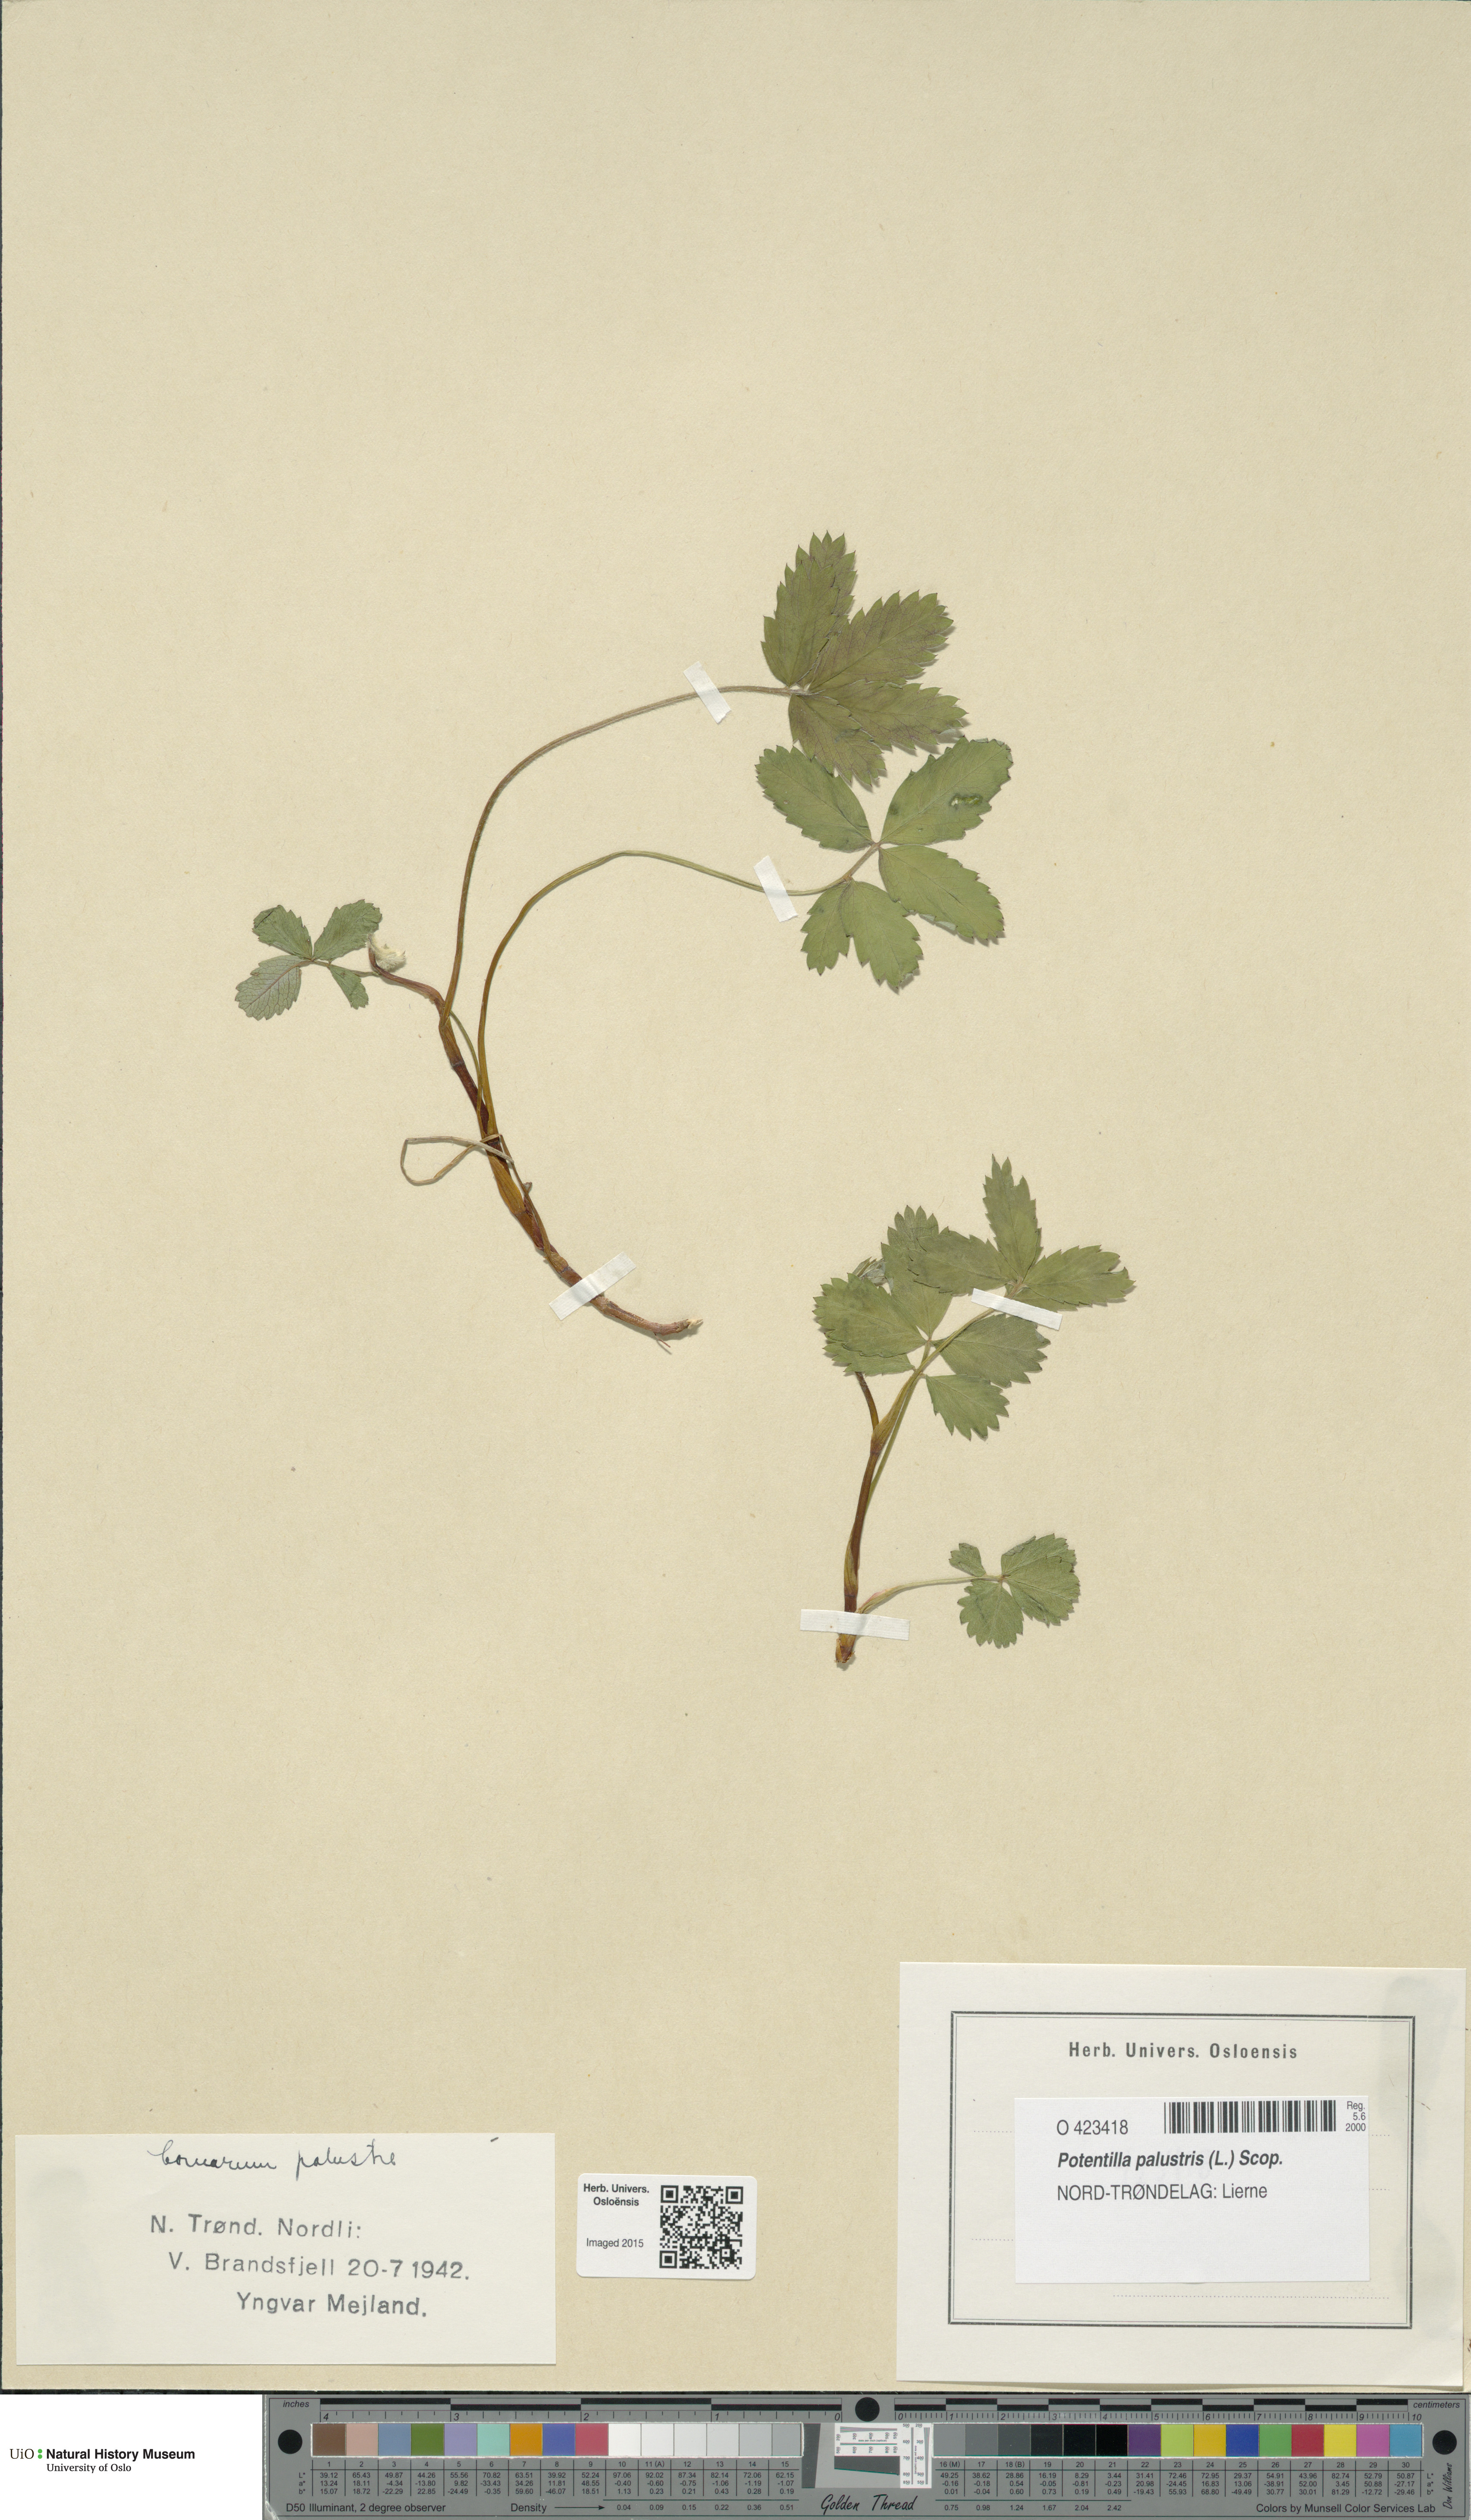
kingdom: Plantae
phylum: Tracheophyta
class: Magnoliopsida
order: Rosales
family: Rosaceae
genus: Comarum
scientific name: Comarum palustre
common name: Marsh cinquefoil
